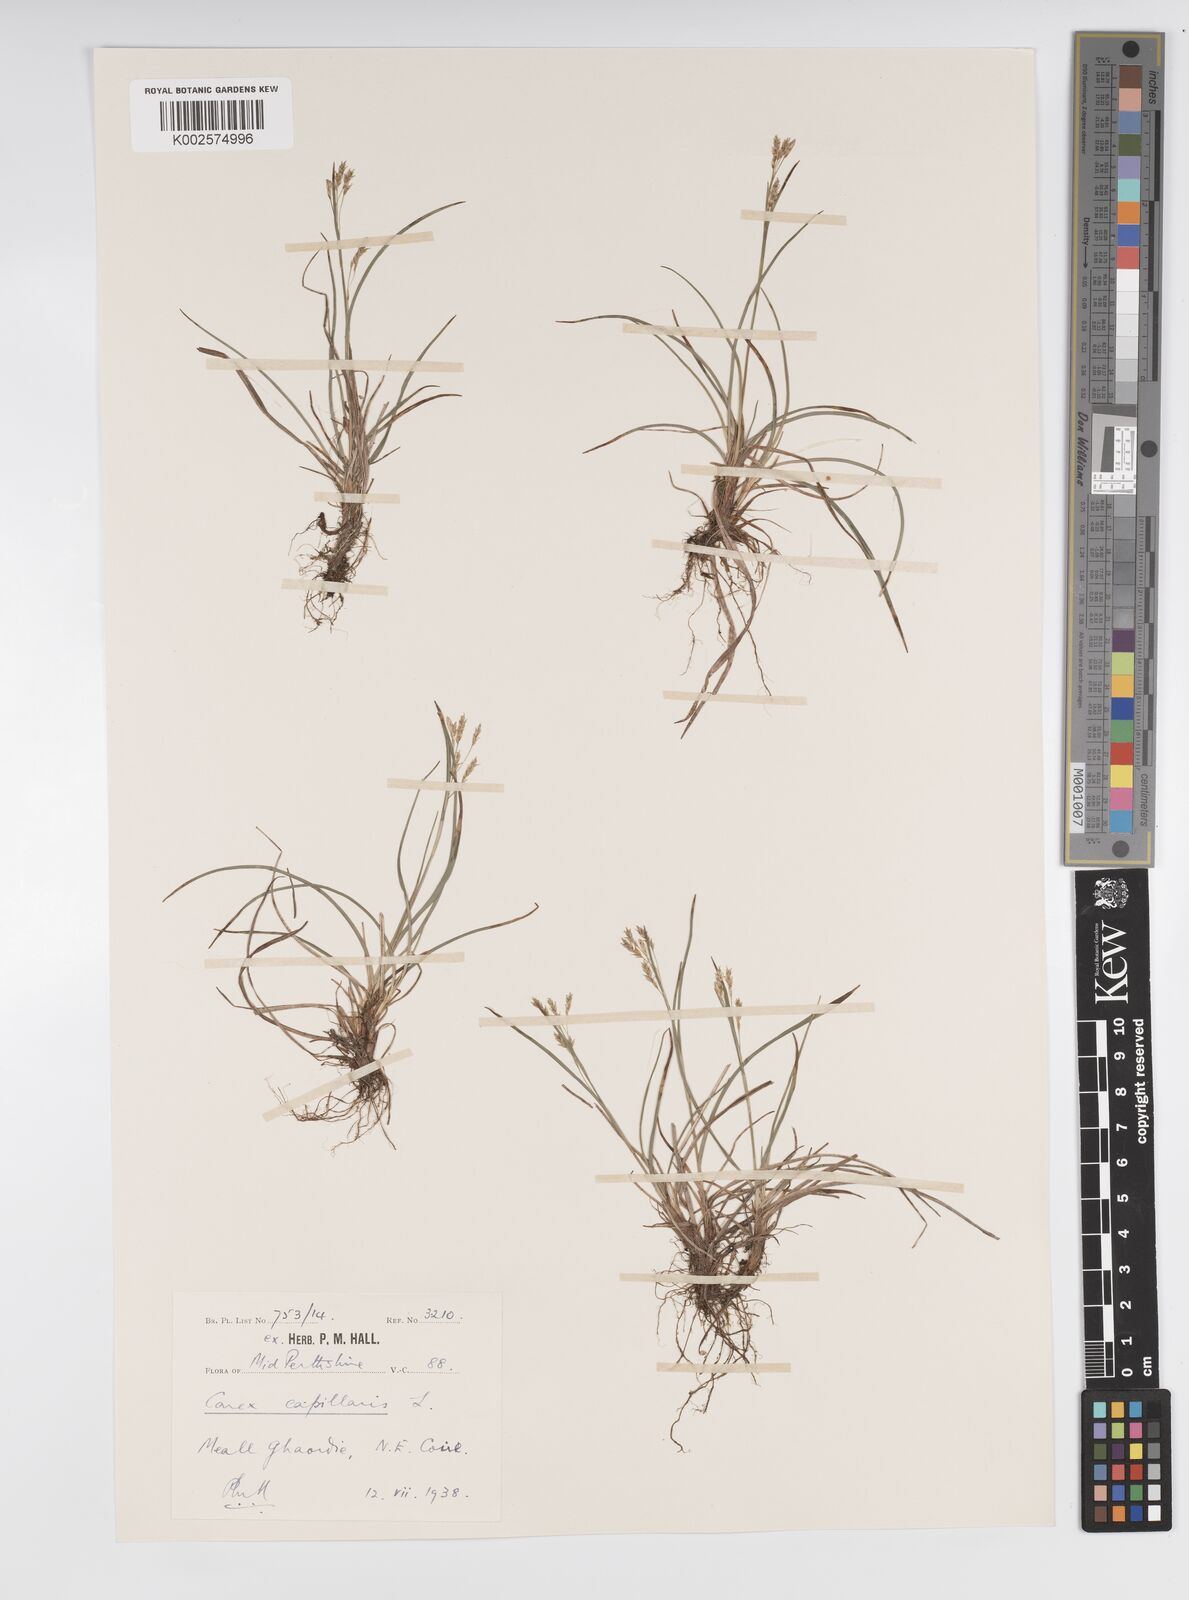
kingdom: Plantae
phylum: Tracheophyta
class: Liliopsida
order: Poales
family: Cyperaceae
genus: Carex
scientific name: Carex capillaris
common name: Hair sedge
